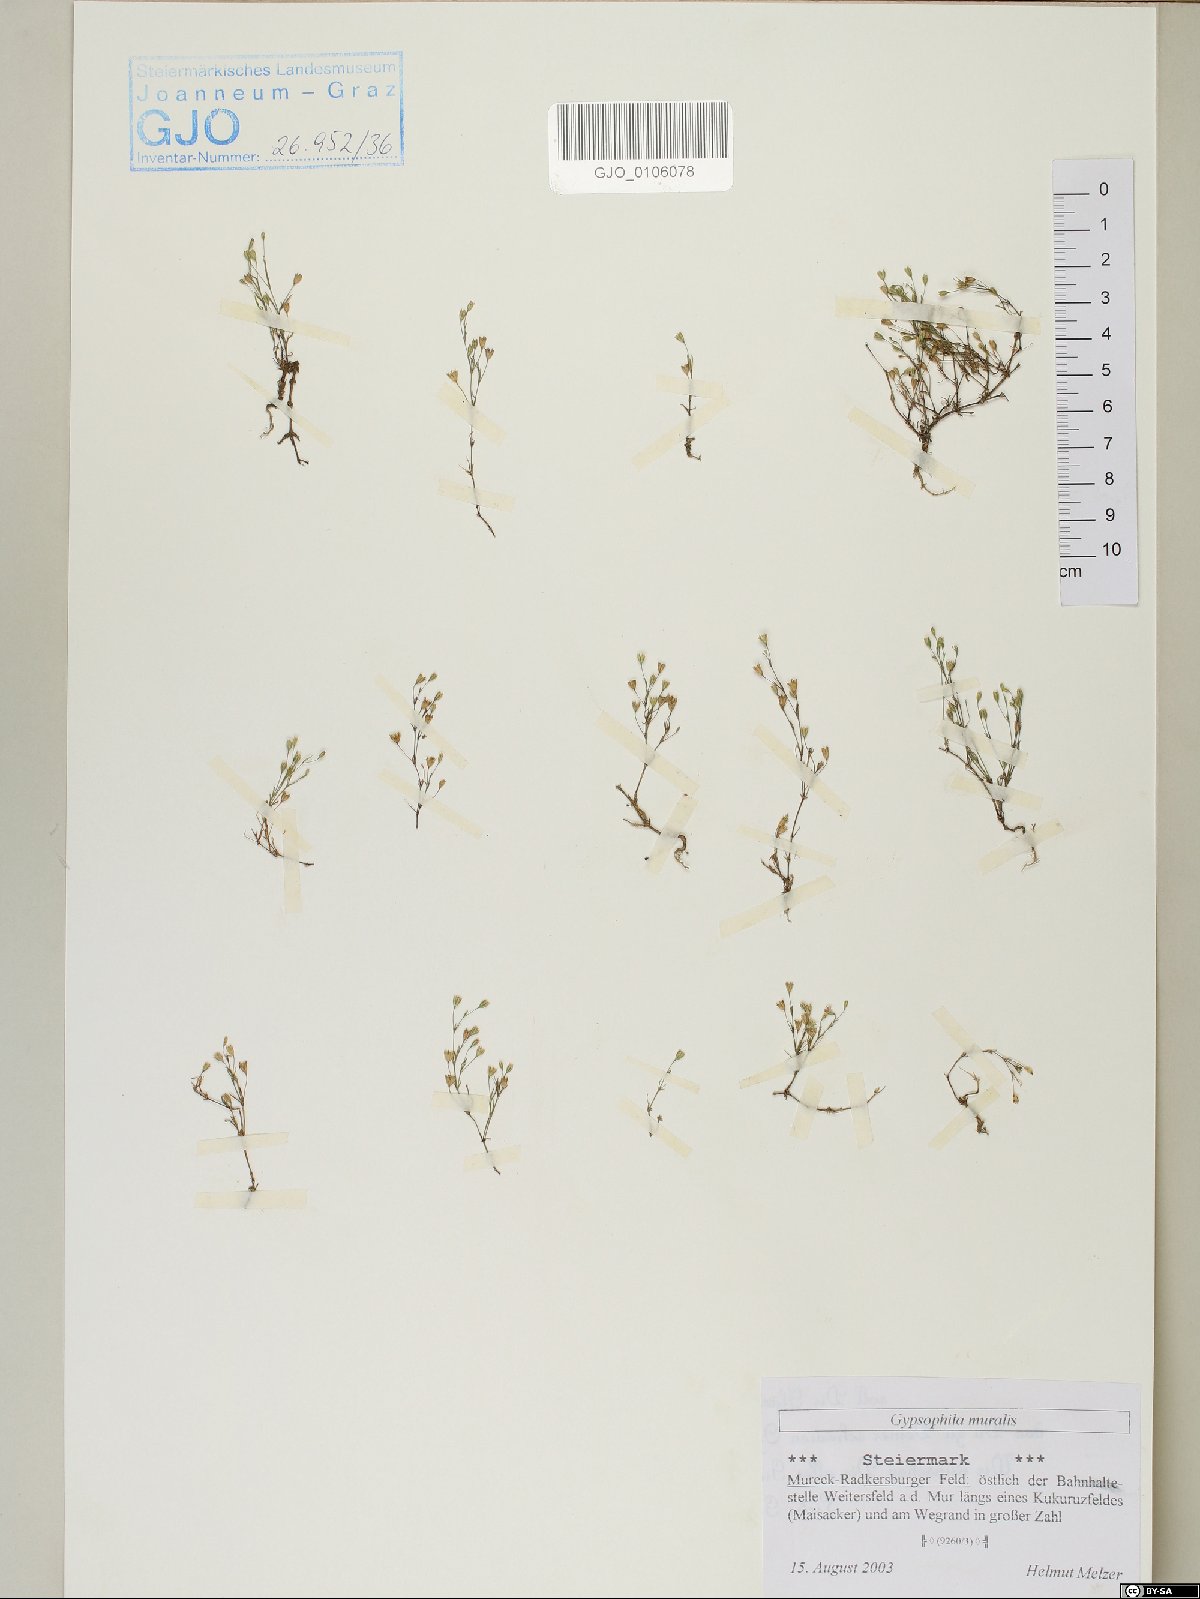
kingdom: Plantae
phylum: Tracheophyta
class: Magnoliopsida
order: Caryophyllales
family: Caryophyllaceae
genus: Psammophiliella
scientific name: Psammophiliella muralis
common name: Cushion baby's-breath
